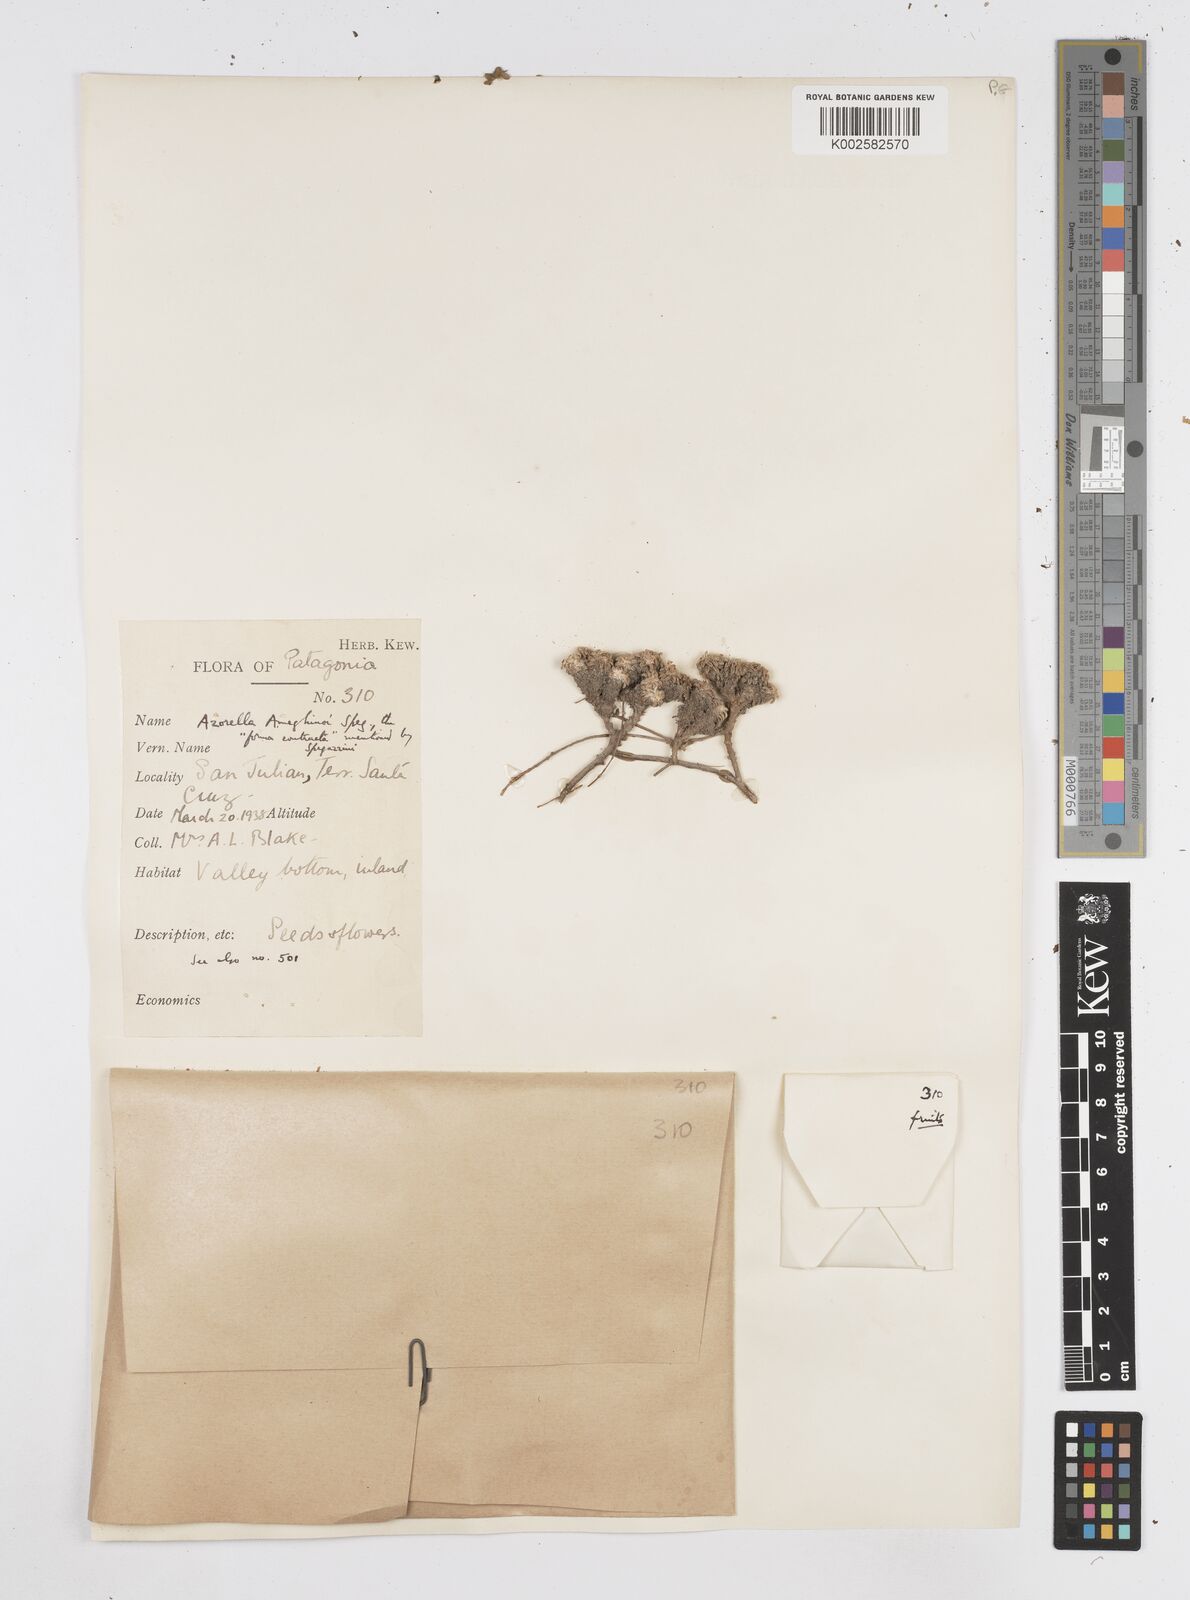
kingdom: Plantae
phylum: Tracheophyta
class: Magnoliopsida
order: Apiales
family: Apiaceae
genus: Azorella
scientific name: Azorella ameghinoi
